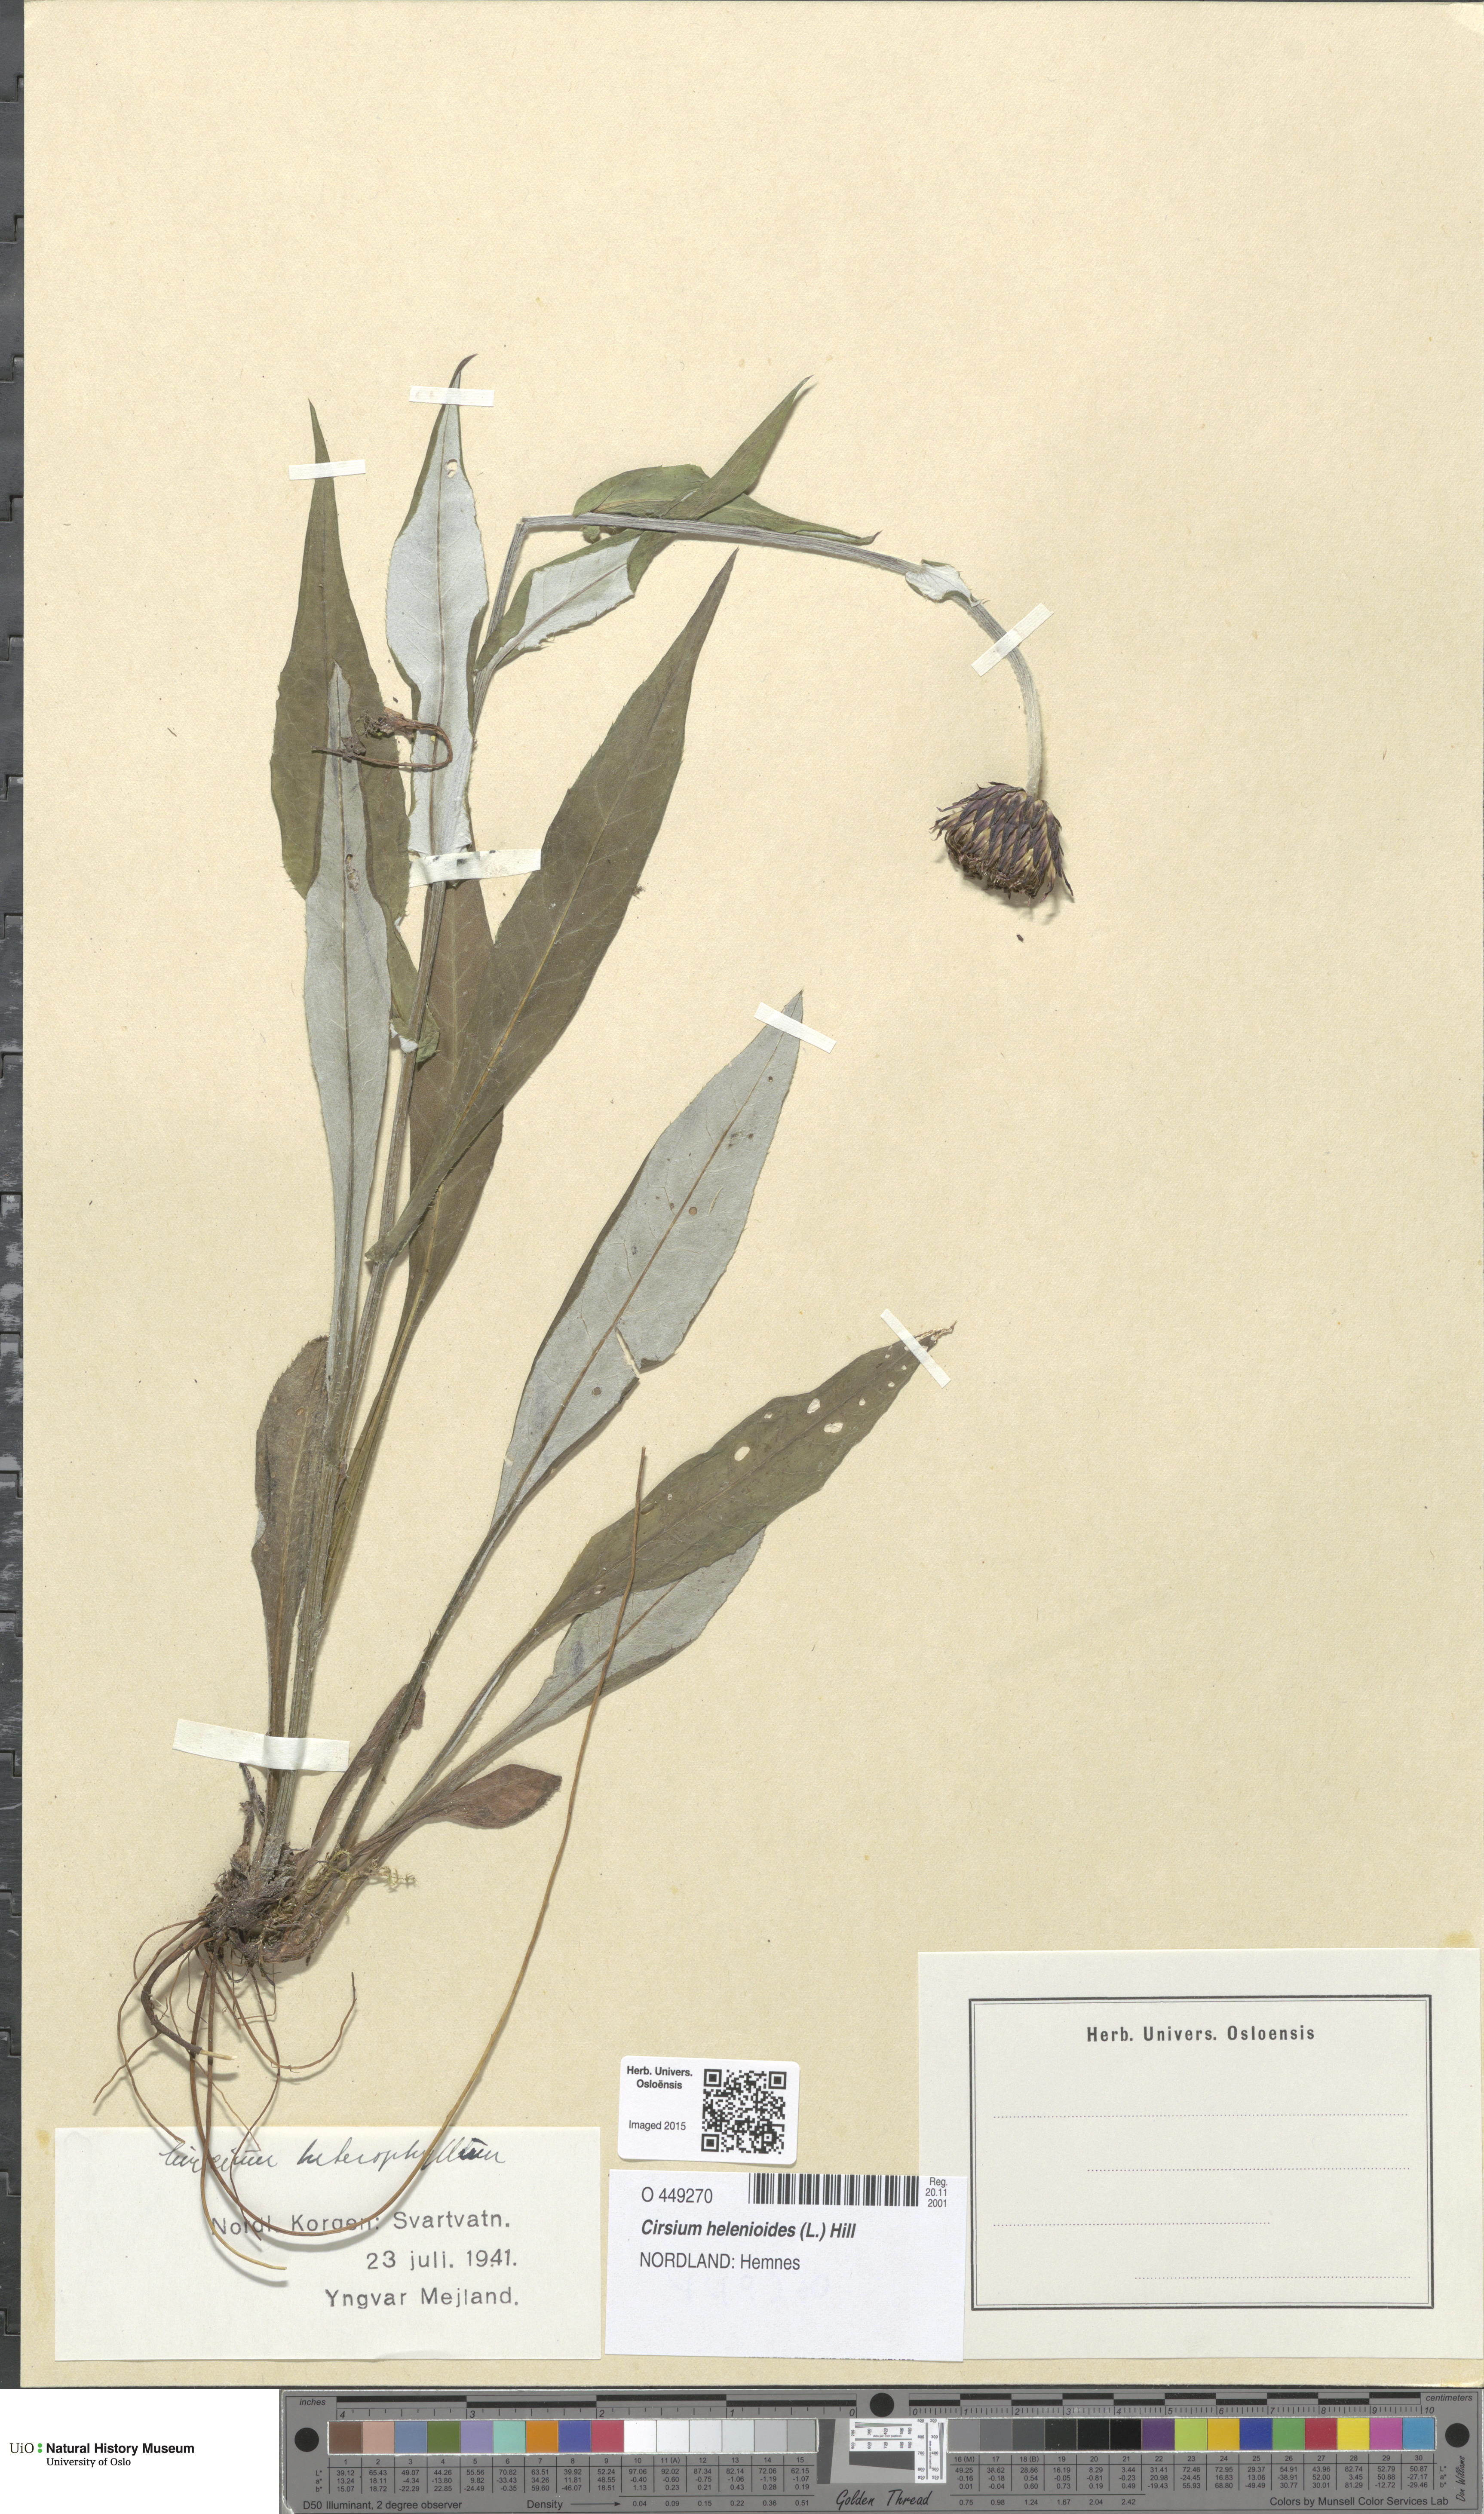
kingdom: Plantae
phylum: Tracheophyta
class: Magnoliopsida
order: Asterales
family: Asteraceae
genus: Cirsium
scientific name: Cirsium heterophyllum
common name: Melancholy thistle
